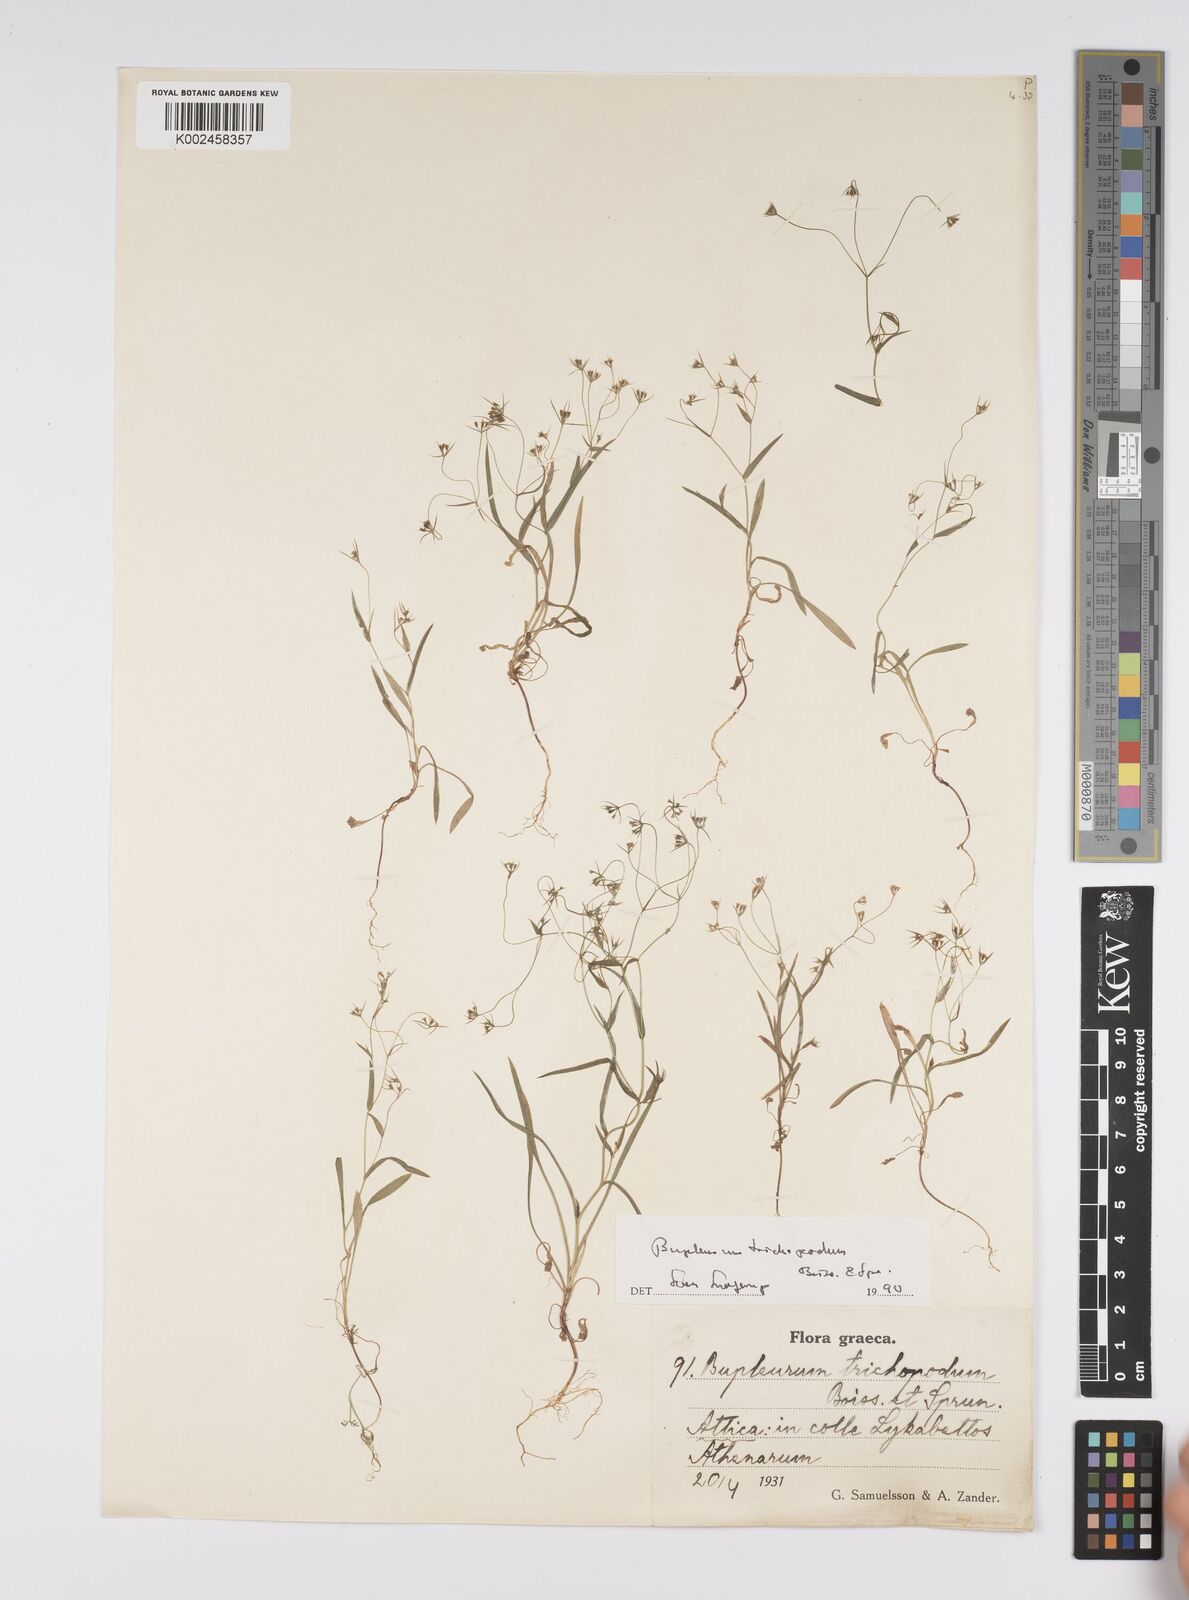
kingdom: Plantae
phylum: Tracheophyta
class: Magnoliopsida
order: Apiales
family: Apiaceae
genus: Bupleurum
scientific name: Bupleurum trichopodum
